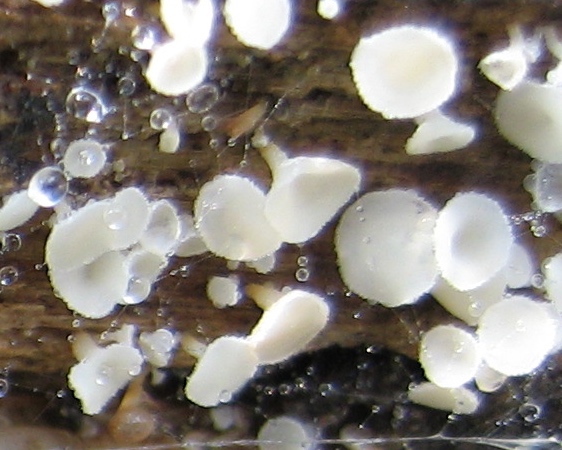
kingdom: Fungi
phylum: Ascomycota
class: Leotiomycetes
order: Helotiales
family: Lachnaceae
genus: Lachnum
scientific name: Lachnum
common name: frynseskive
